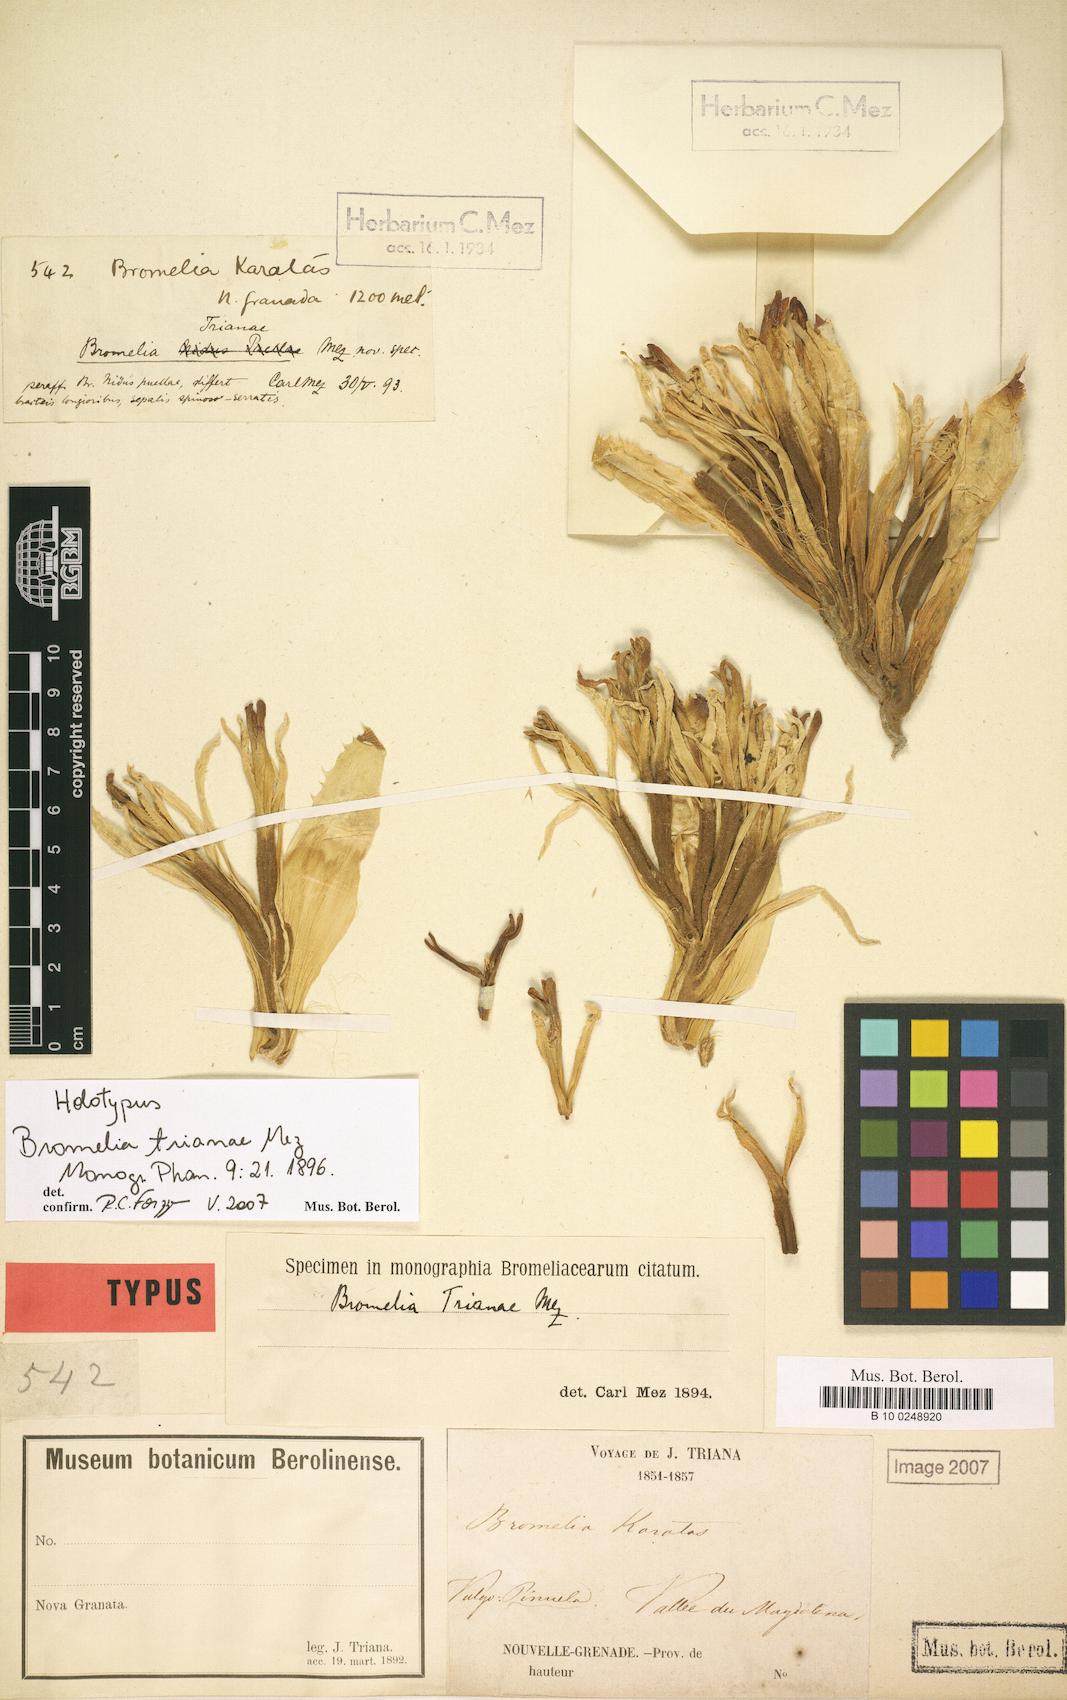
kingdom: Plantae
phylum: Tracheophyta
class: Liliopsida
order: Poales
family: Bromeliaceae
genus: Bromelia
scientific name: Bromelia trianae
